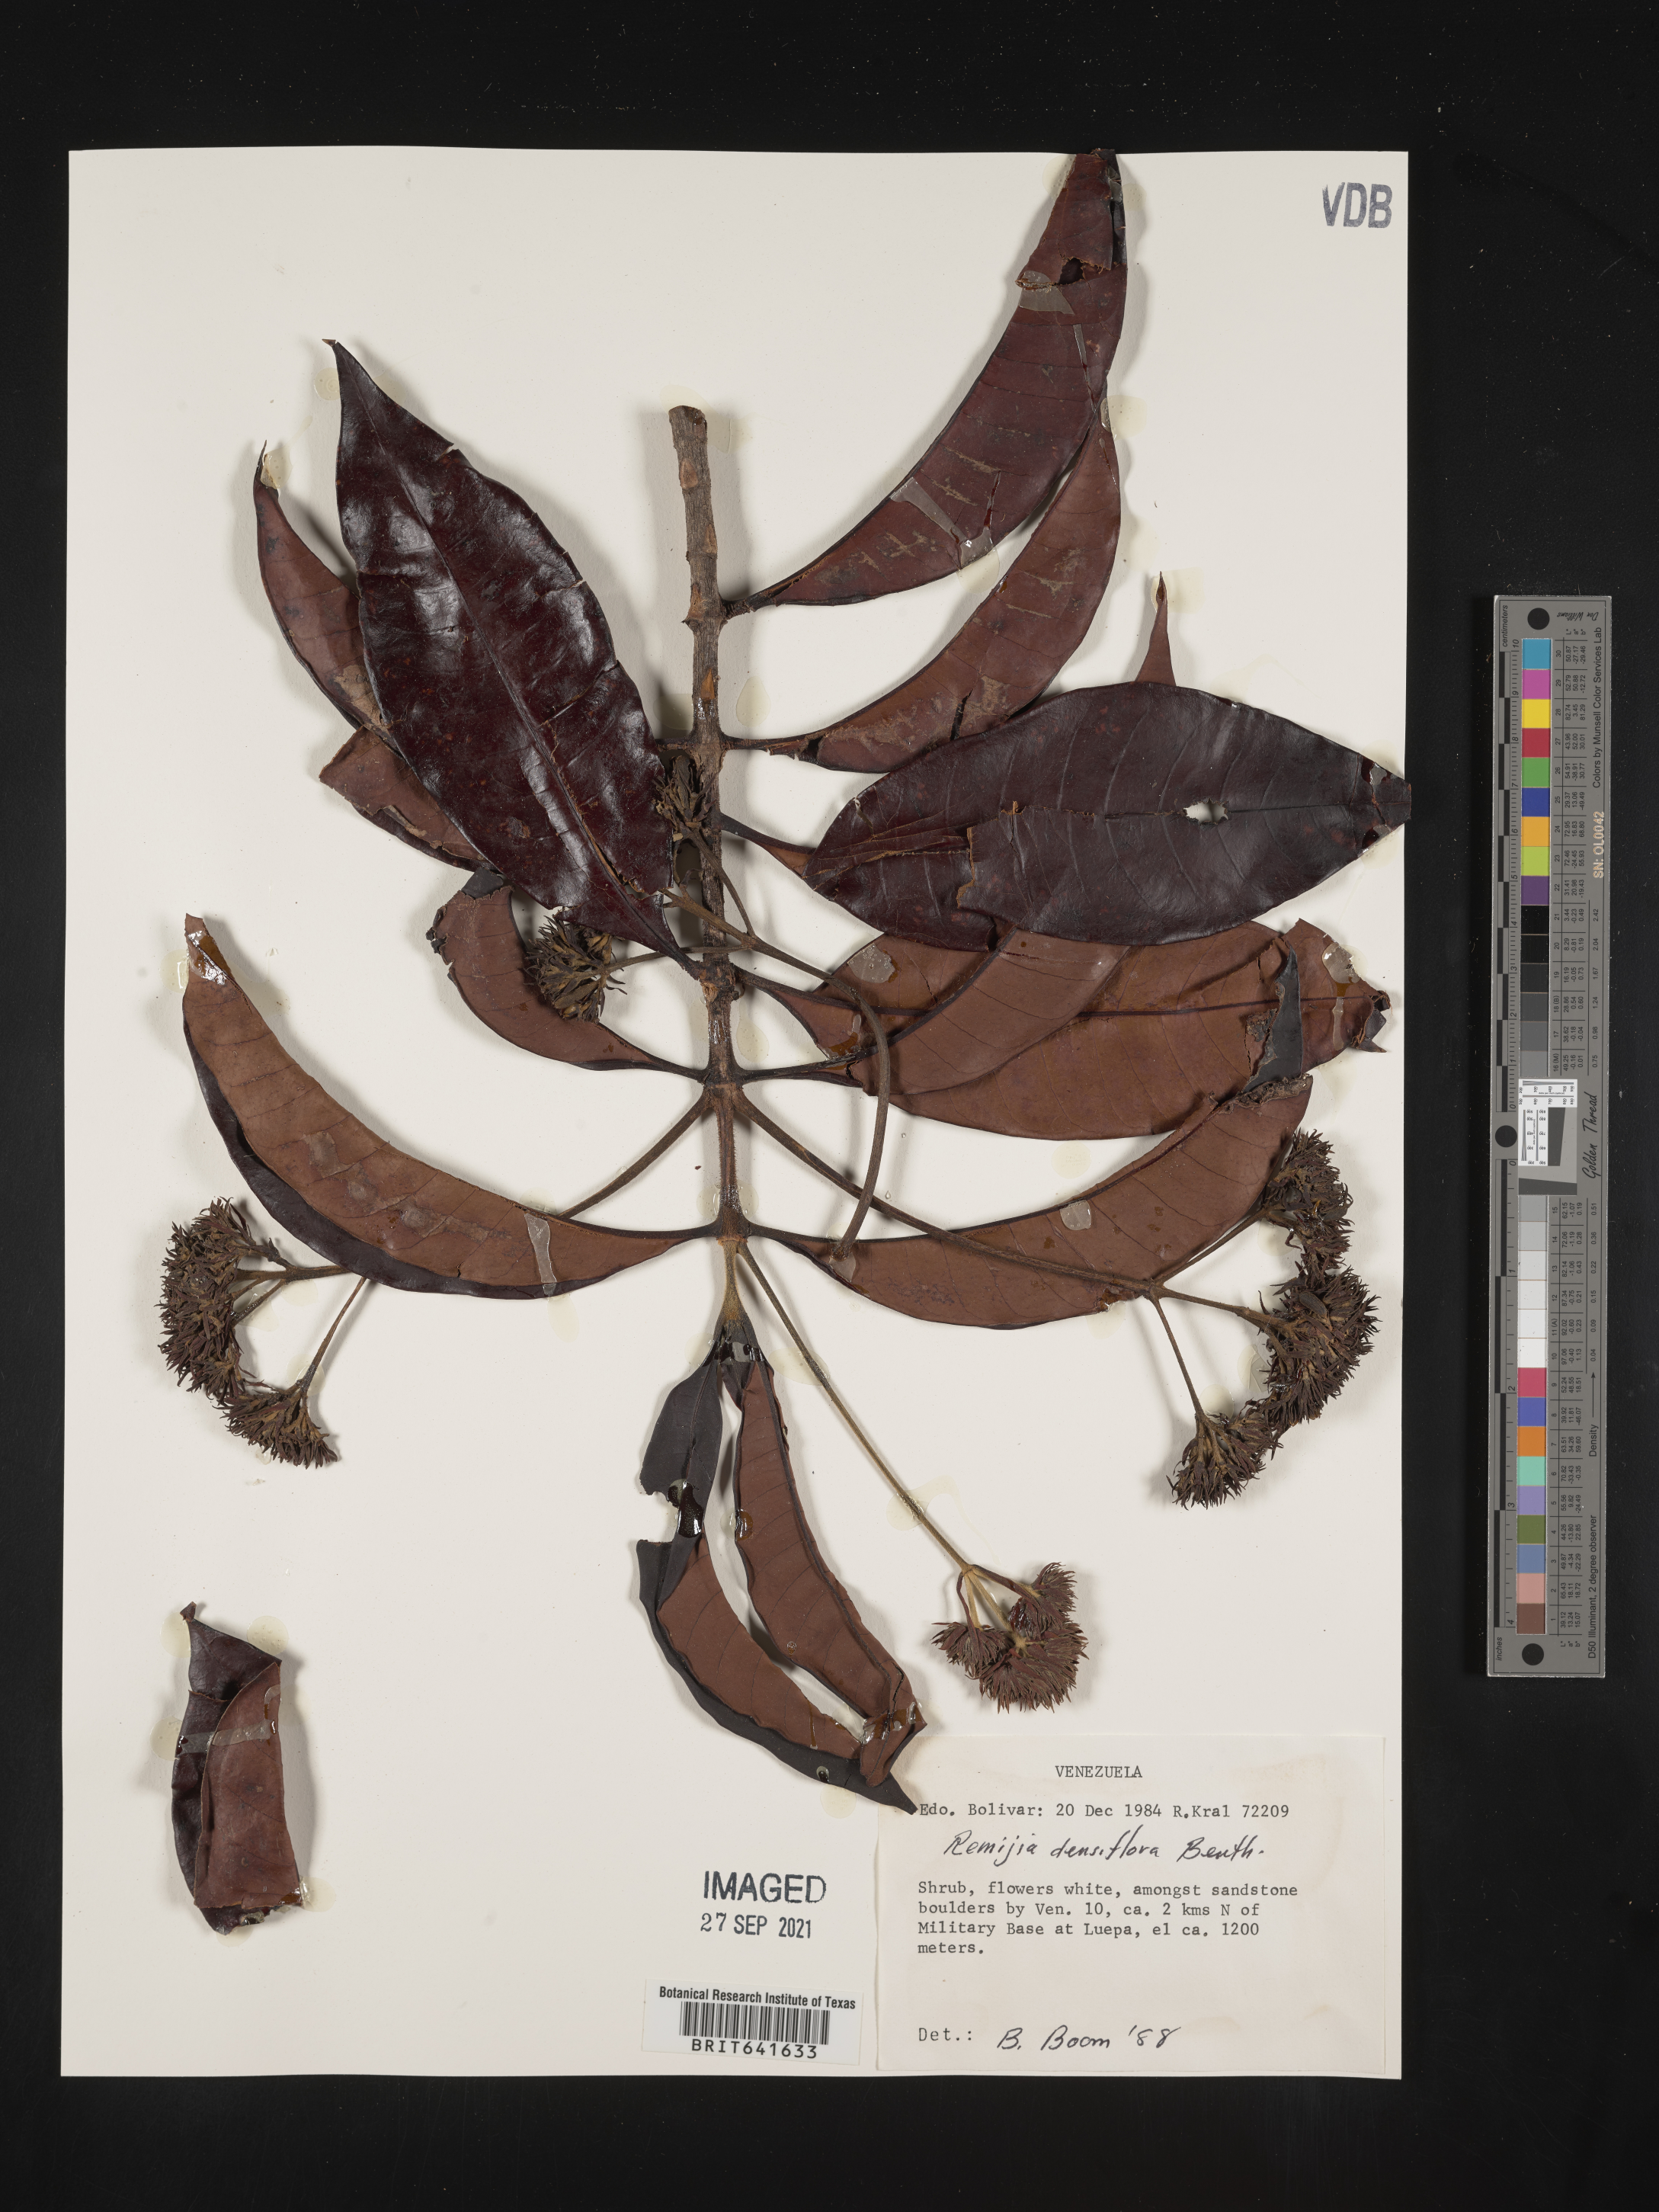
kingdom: Plantae
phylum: Tracheophyta
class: Magnoliopsida
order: Gentianales
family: Rubiaceae
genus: Remijia
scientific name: Remijia
